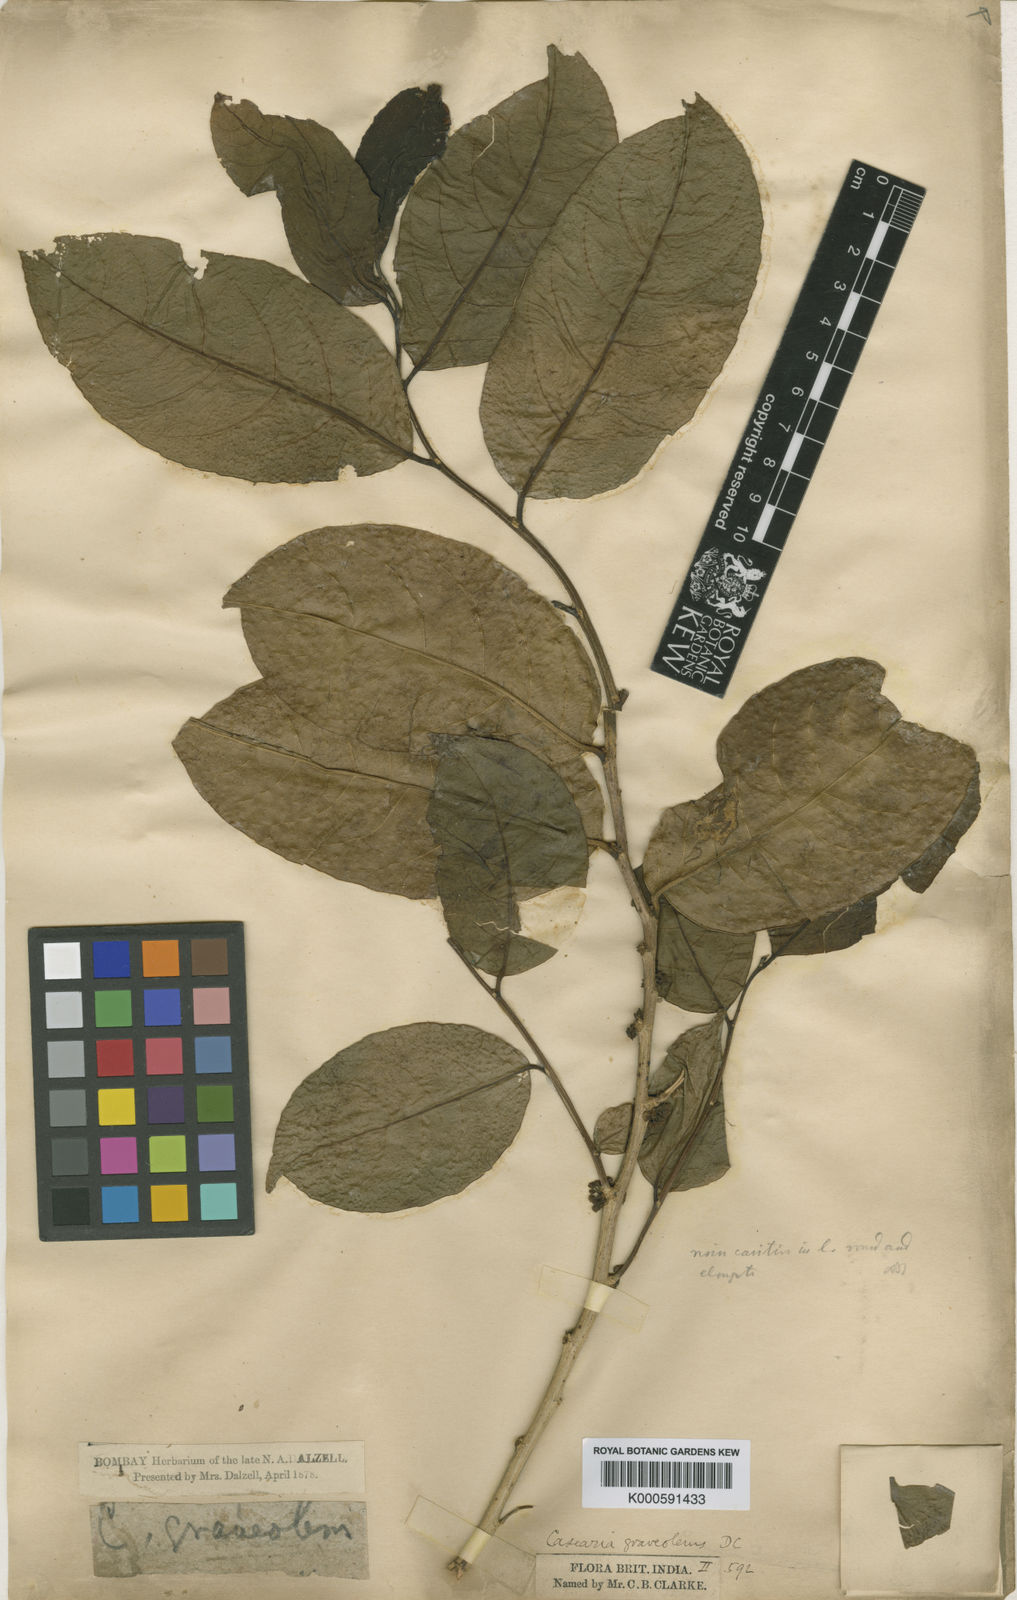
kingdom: Plantae
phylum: Tracheophyta
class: Magnoliopsida
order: Malpighiales
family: Salicaceae
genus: Casearia
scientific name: Casearia
